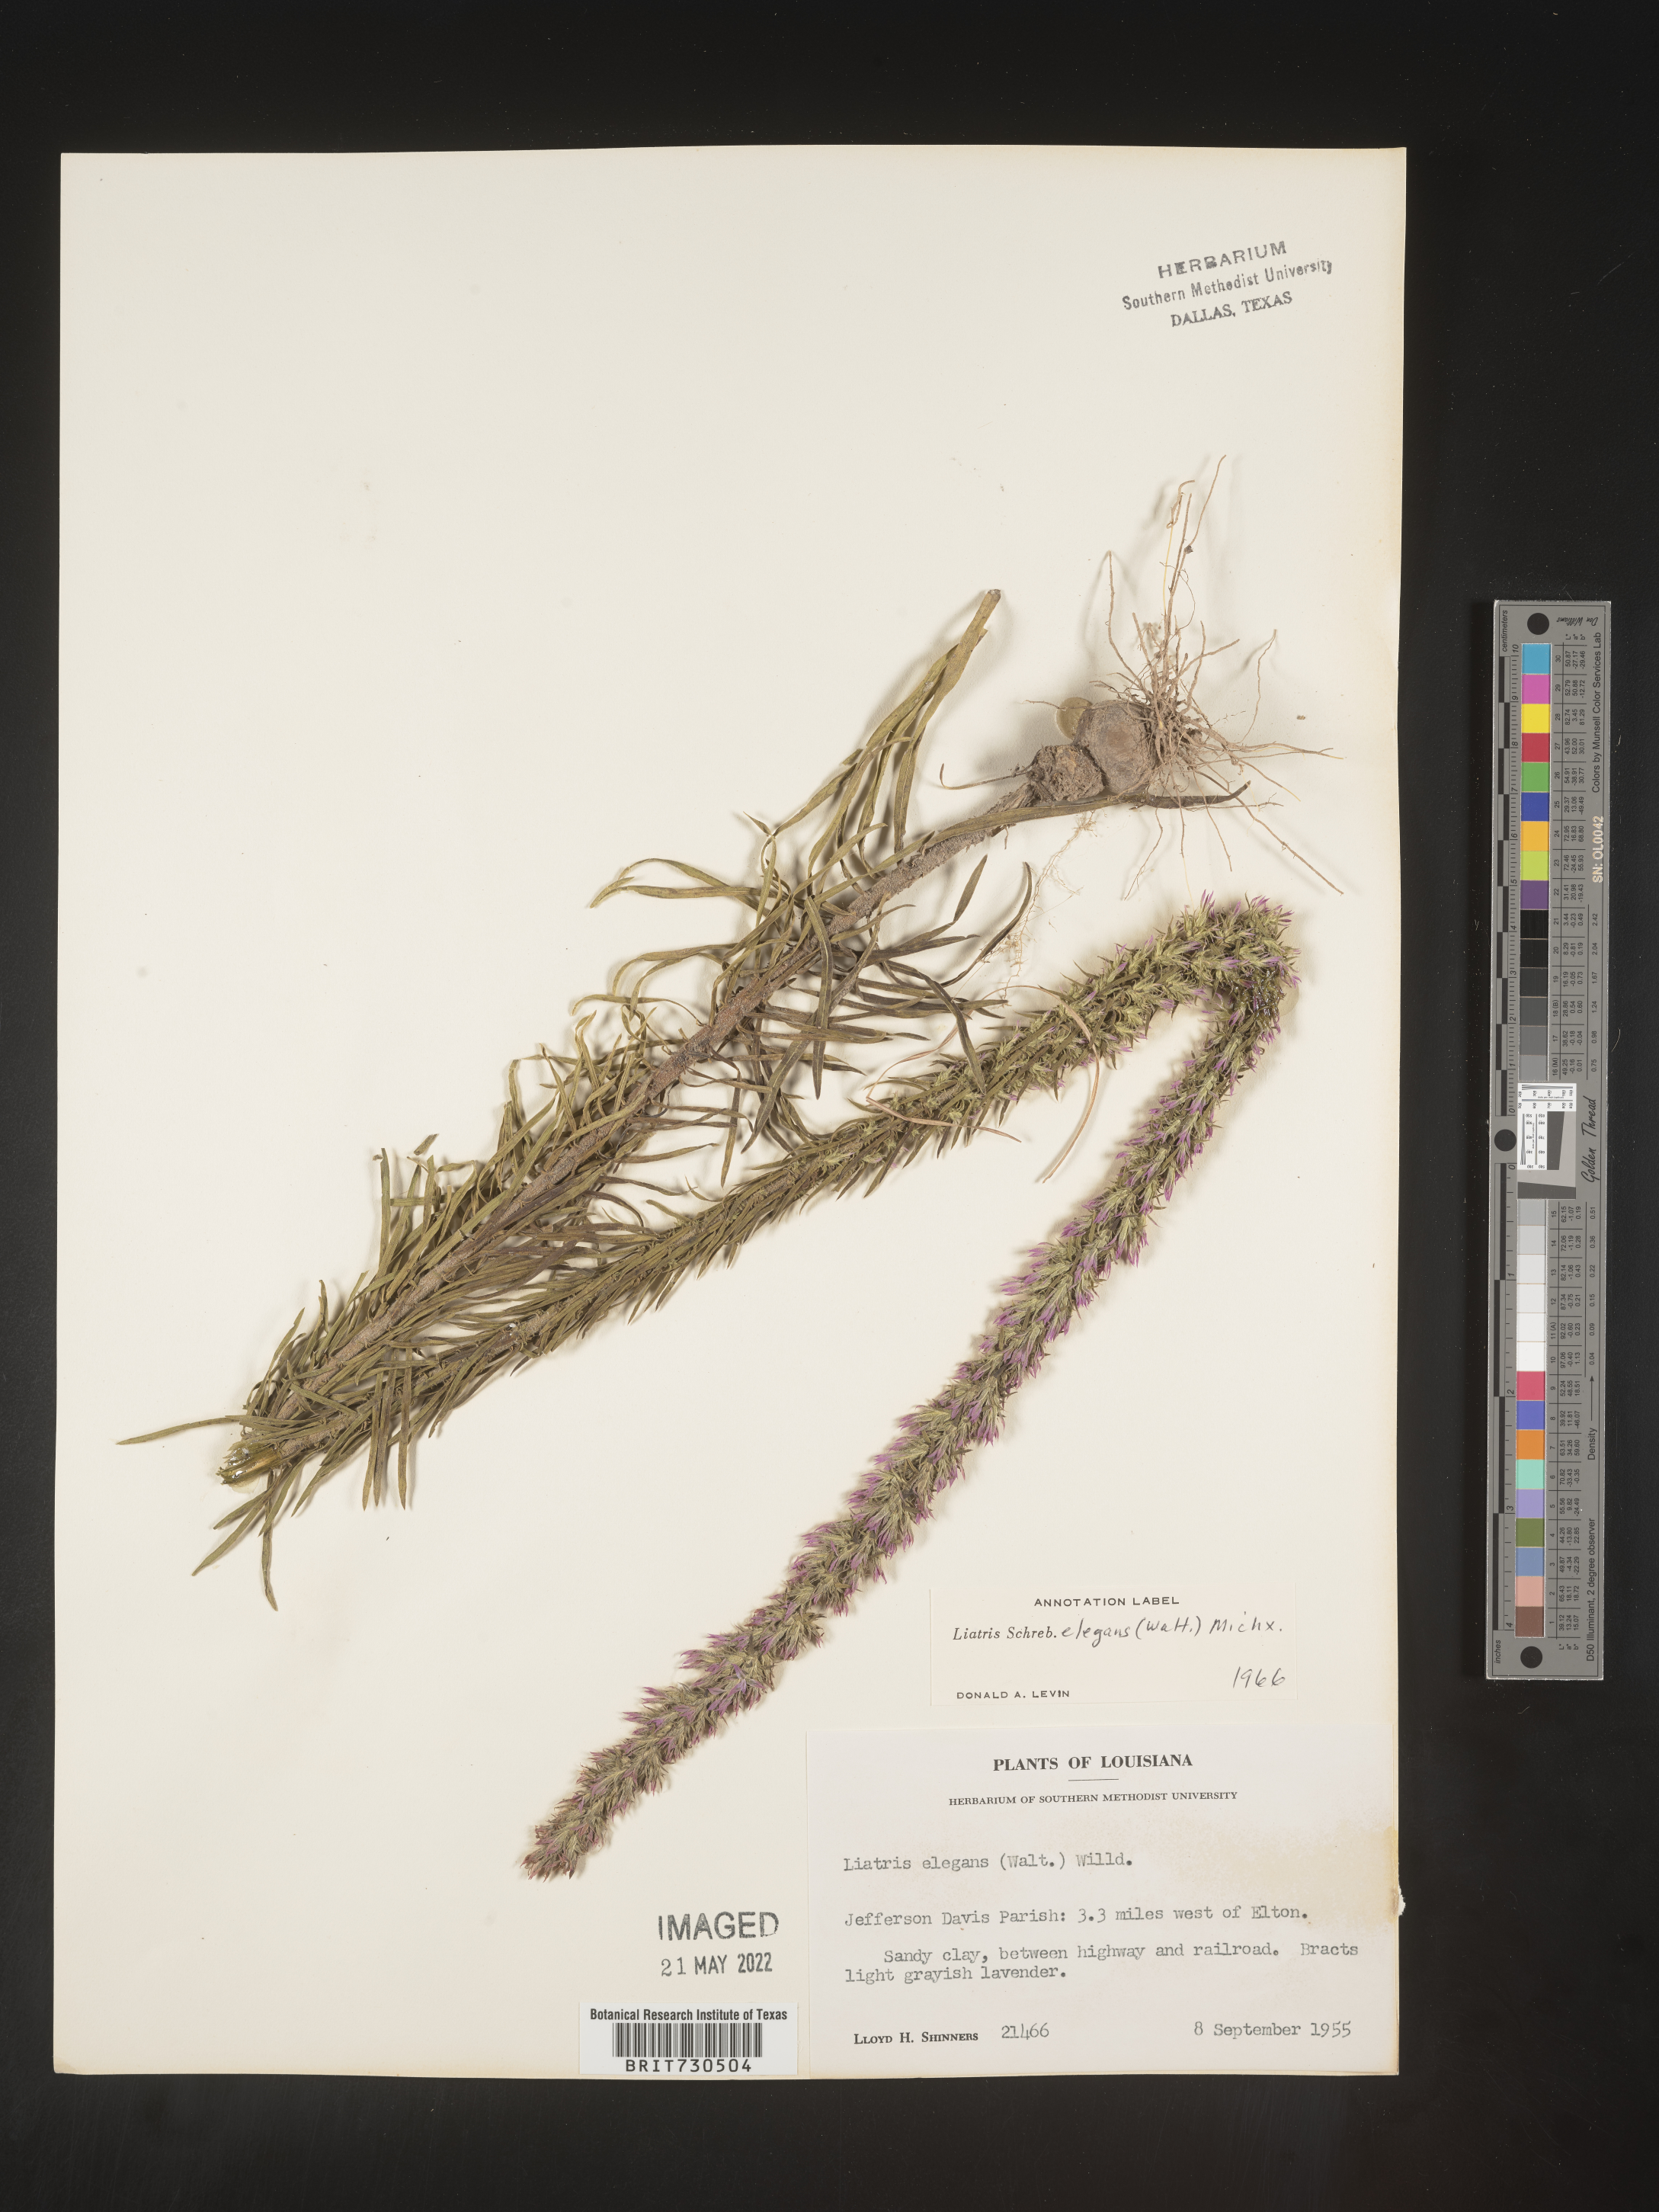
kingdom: Plantae
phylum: Tracheophyta
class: Magnoliopsida
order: Asterales
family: Asteraceae
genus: Liatris
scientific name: Liatris elegans
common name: Pinkscale gayfeather
